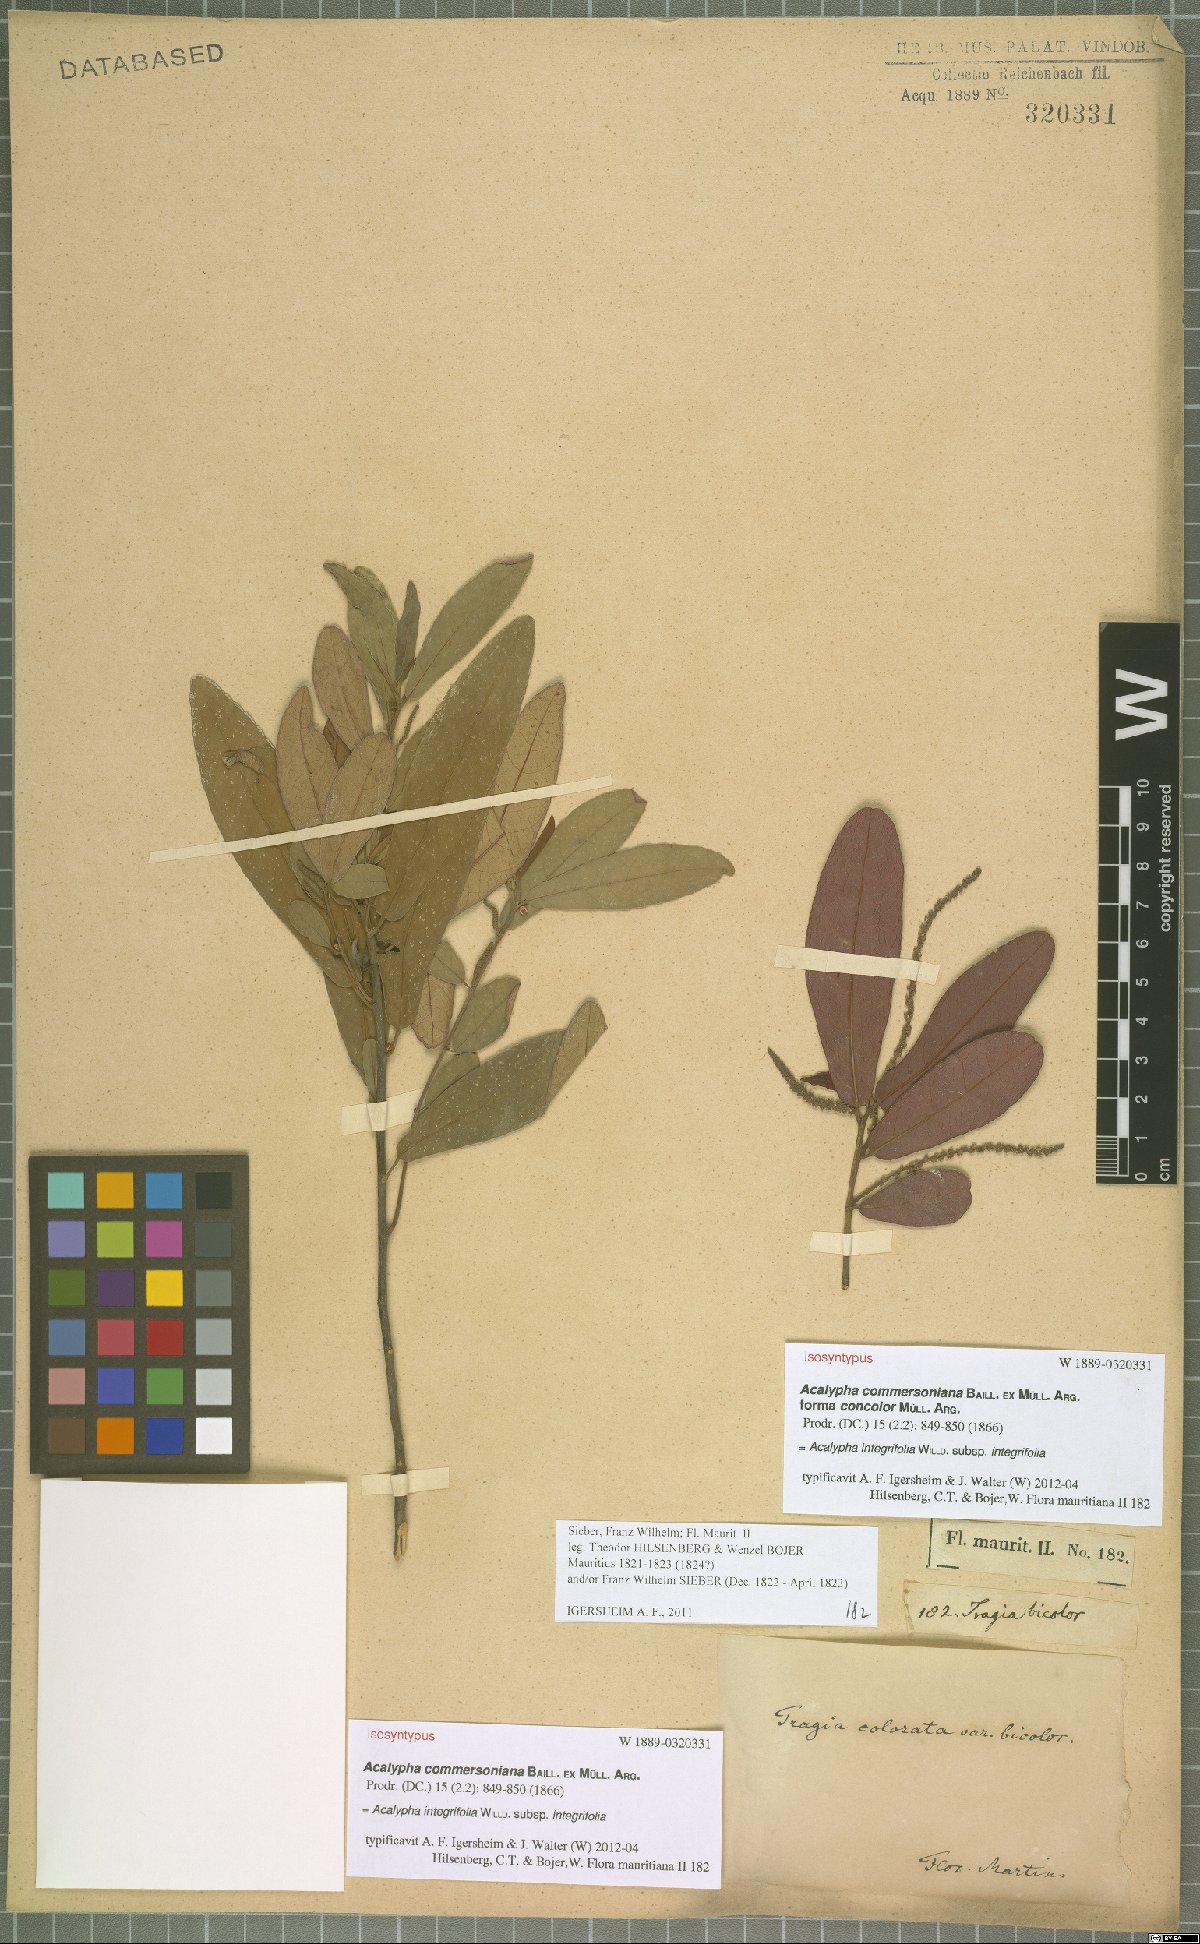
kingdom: Plantae
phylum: Tracheophyta
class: Magnoliopsida
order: Malpighiales
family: Euphorbiaceae
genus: Acalypha
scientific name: Acalypha integrifolia
